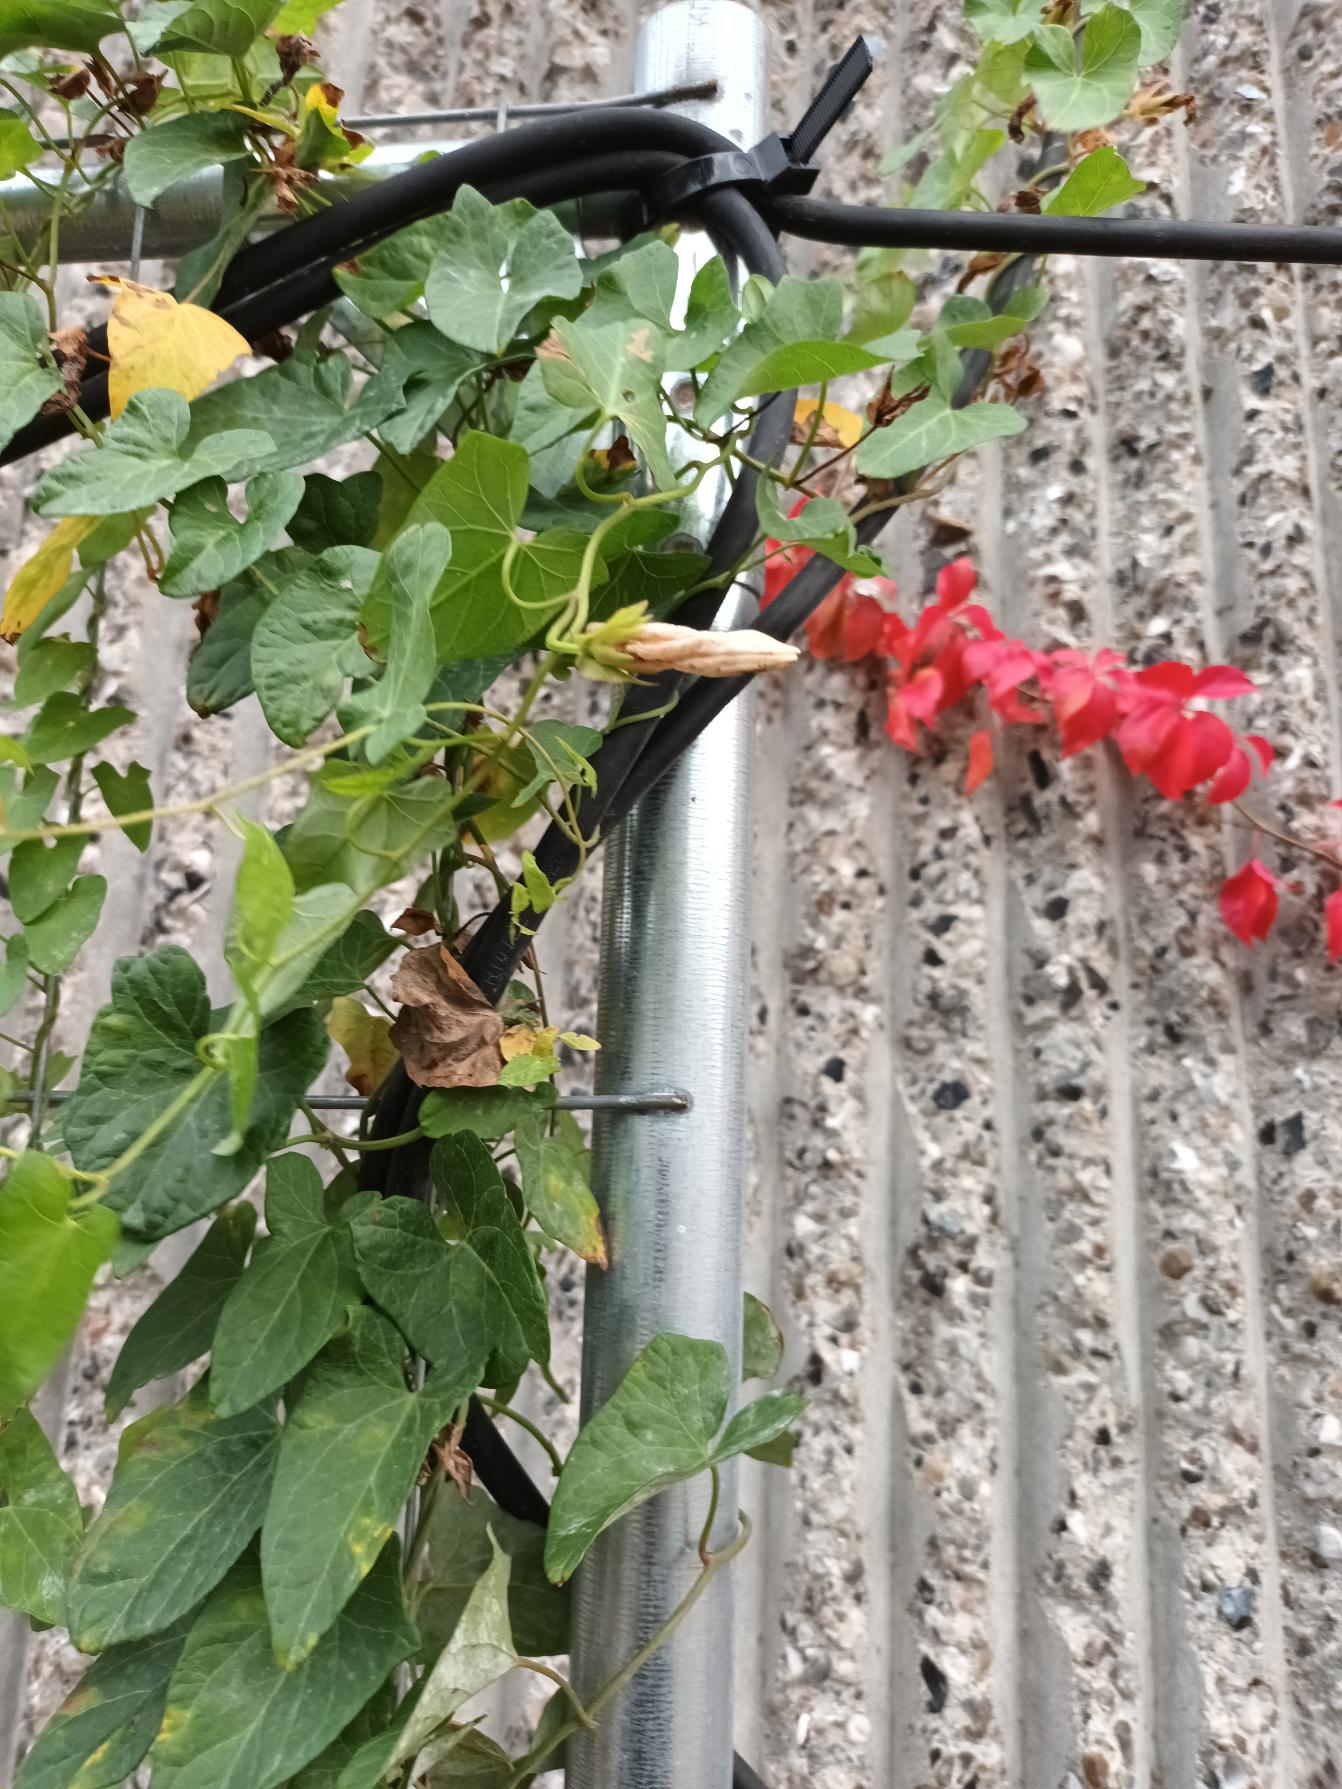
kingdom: Plantae
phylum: Tracheophyta
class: Magnoliopsida
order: Solanales
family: Convolvulaceae
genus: Calystegia
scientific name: Calystegia sepium
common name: Gærde-snerle
